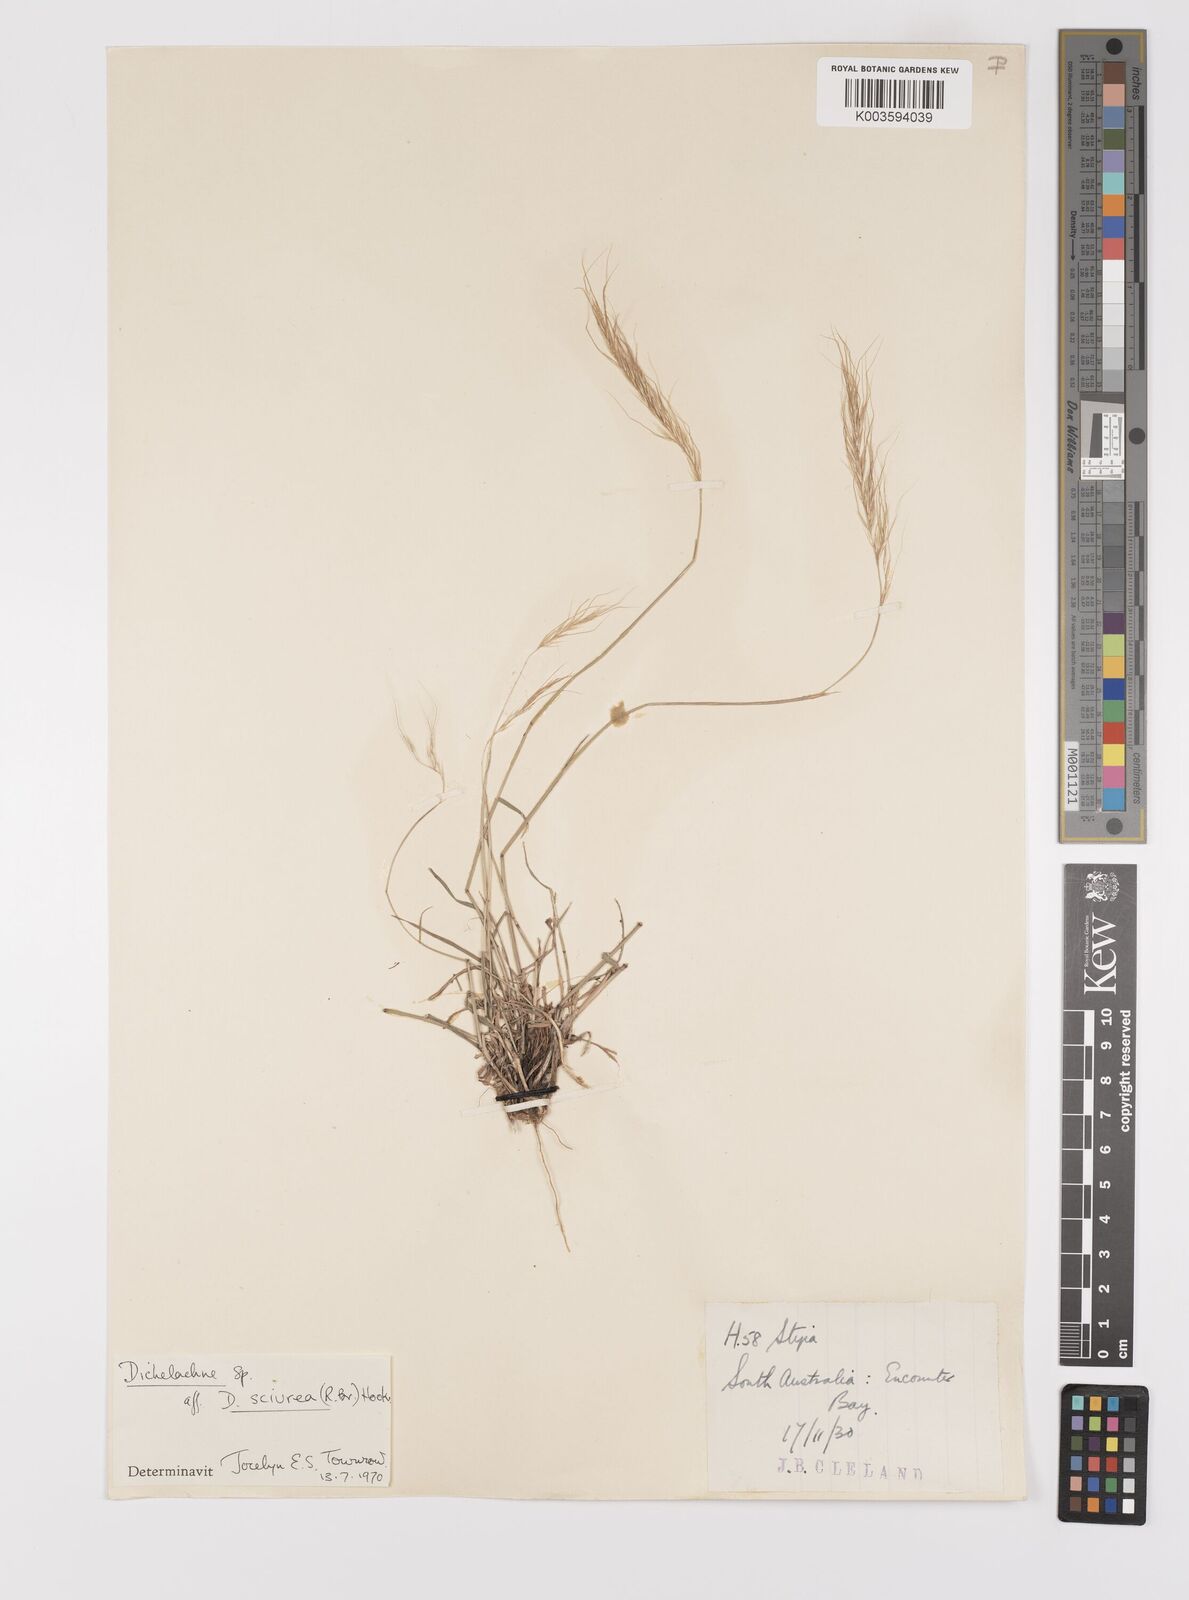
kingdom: Plantae
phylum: Tracheophyta
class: Liliopsida
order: Poales
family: Poaceae
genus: Dichelachne
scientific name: Dichelachne rara
